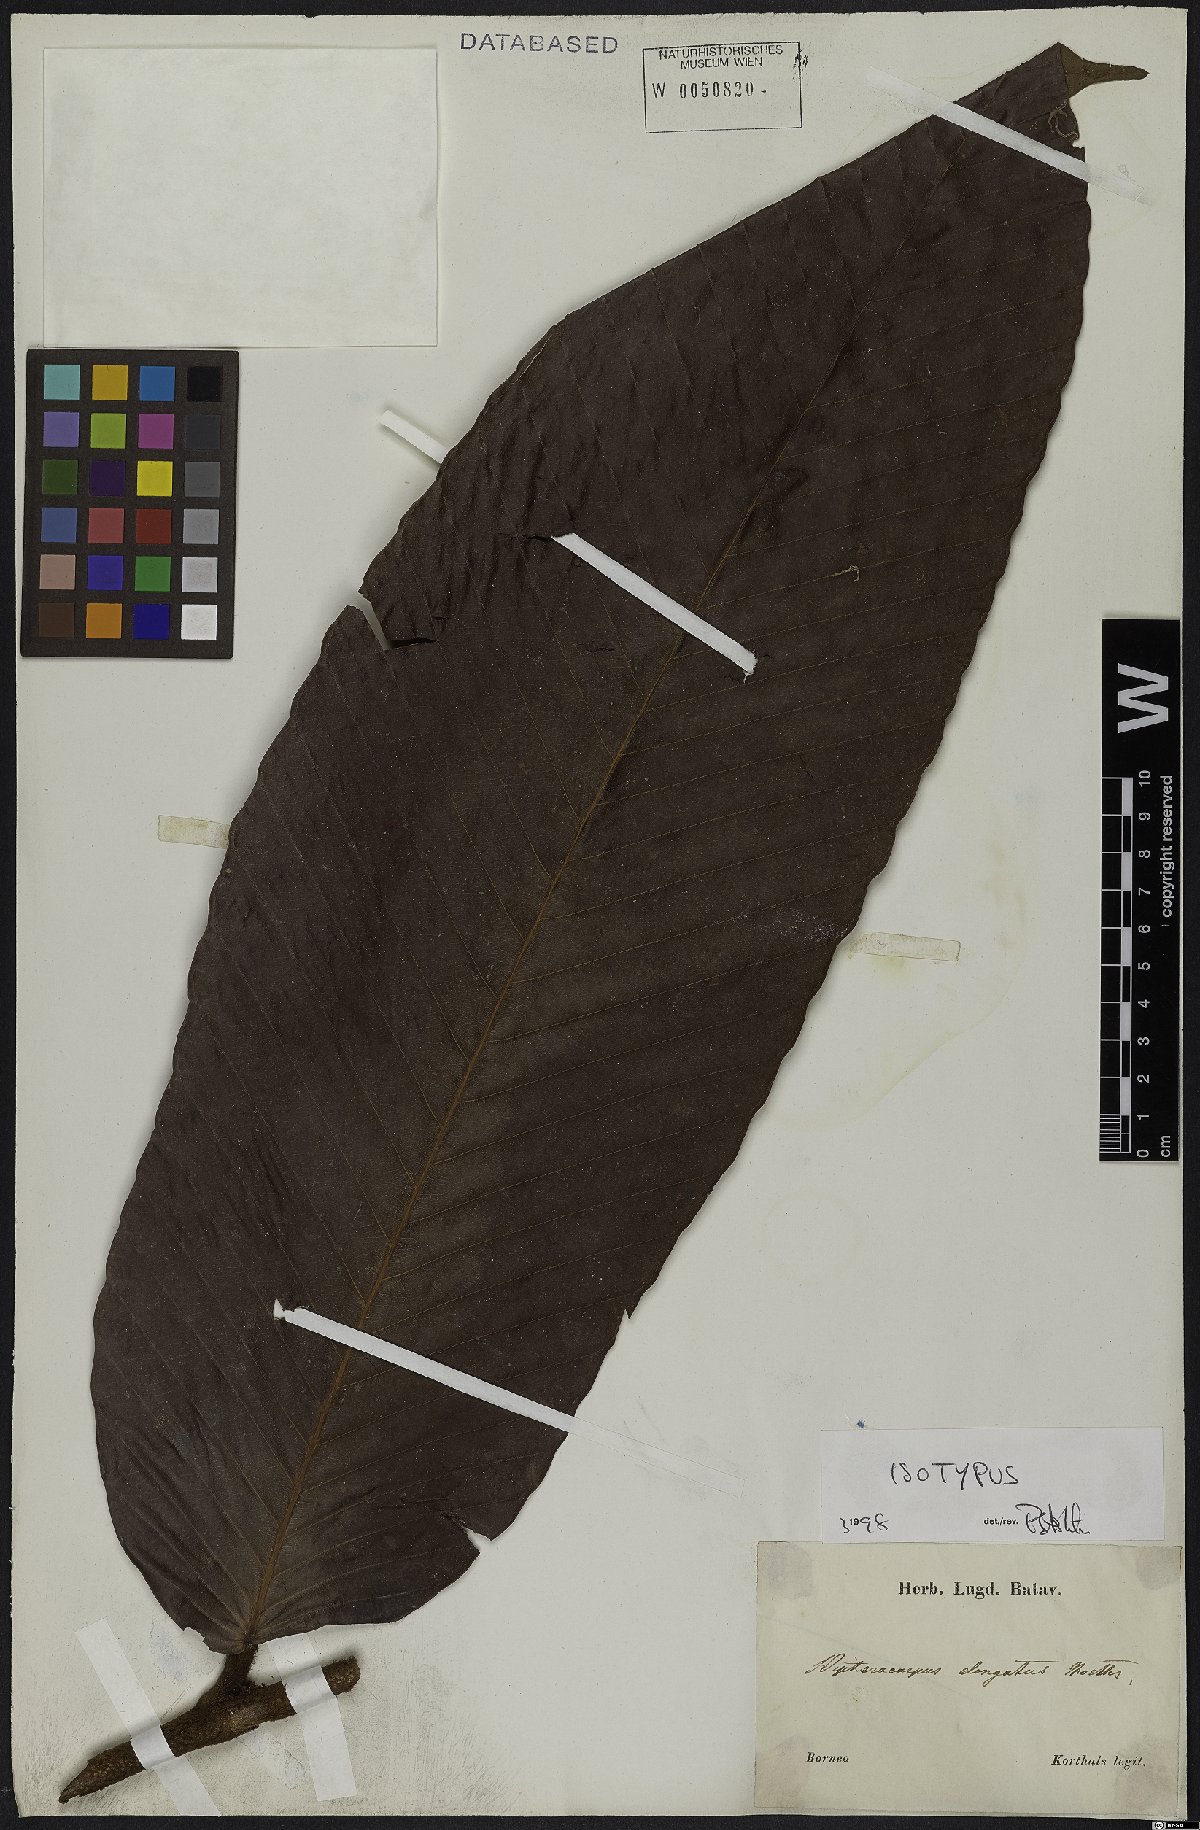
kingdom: Plantae
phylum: Tracheophyta
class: Magnoliopsida
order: Malvales
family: Dipterocarpaceae
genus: Dipterocarpus
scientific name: Dipterocarpus elongatus
